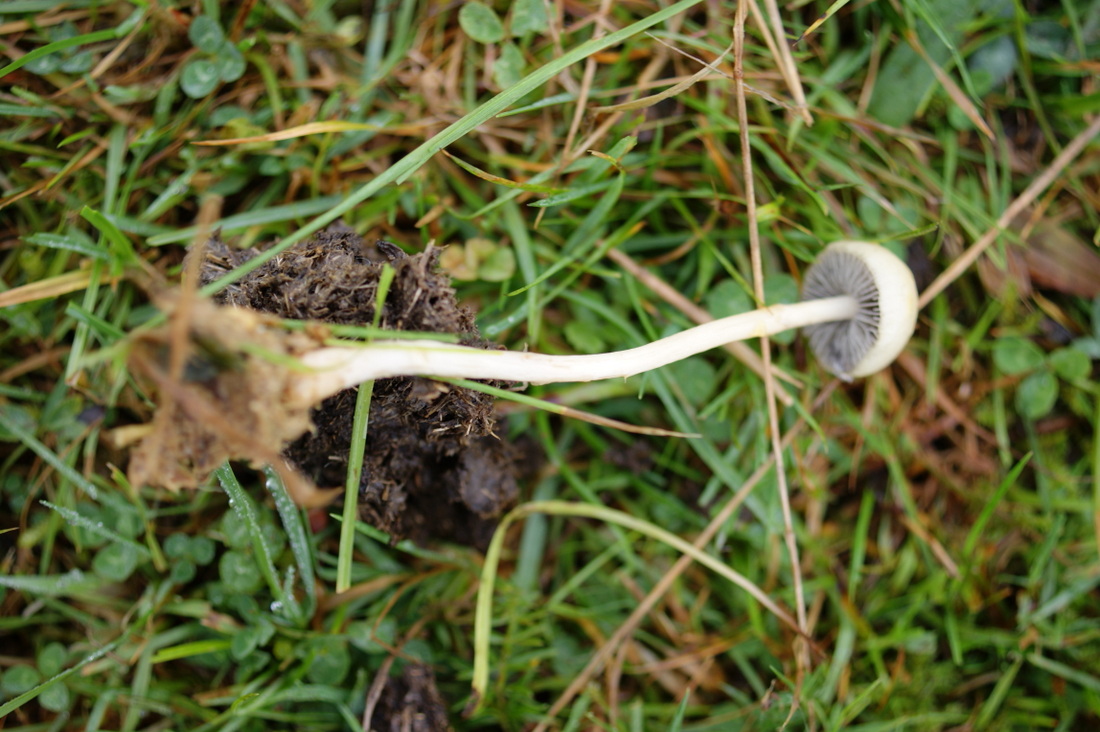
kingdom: Fungi
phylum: Basidiomycota
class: Agaricomycetes
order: Agaricales
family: Strophariaceae
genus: Protostropharia
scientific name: Protostropharia semiglobata
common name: halvkugleformet bredblad
